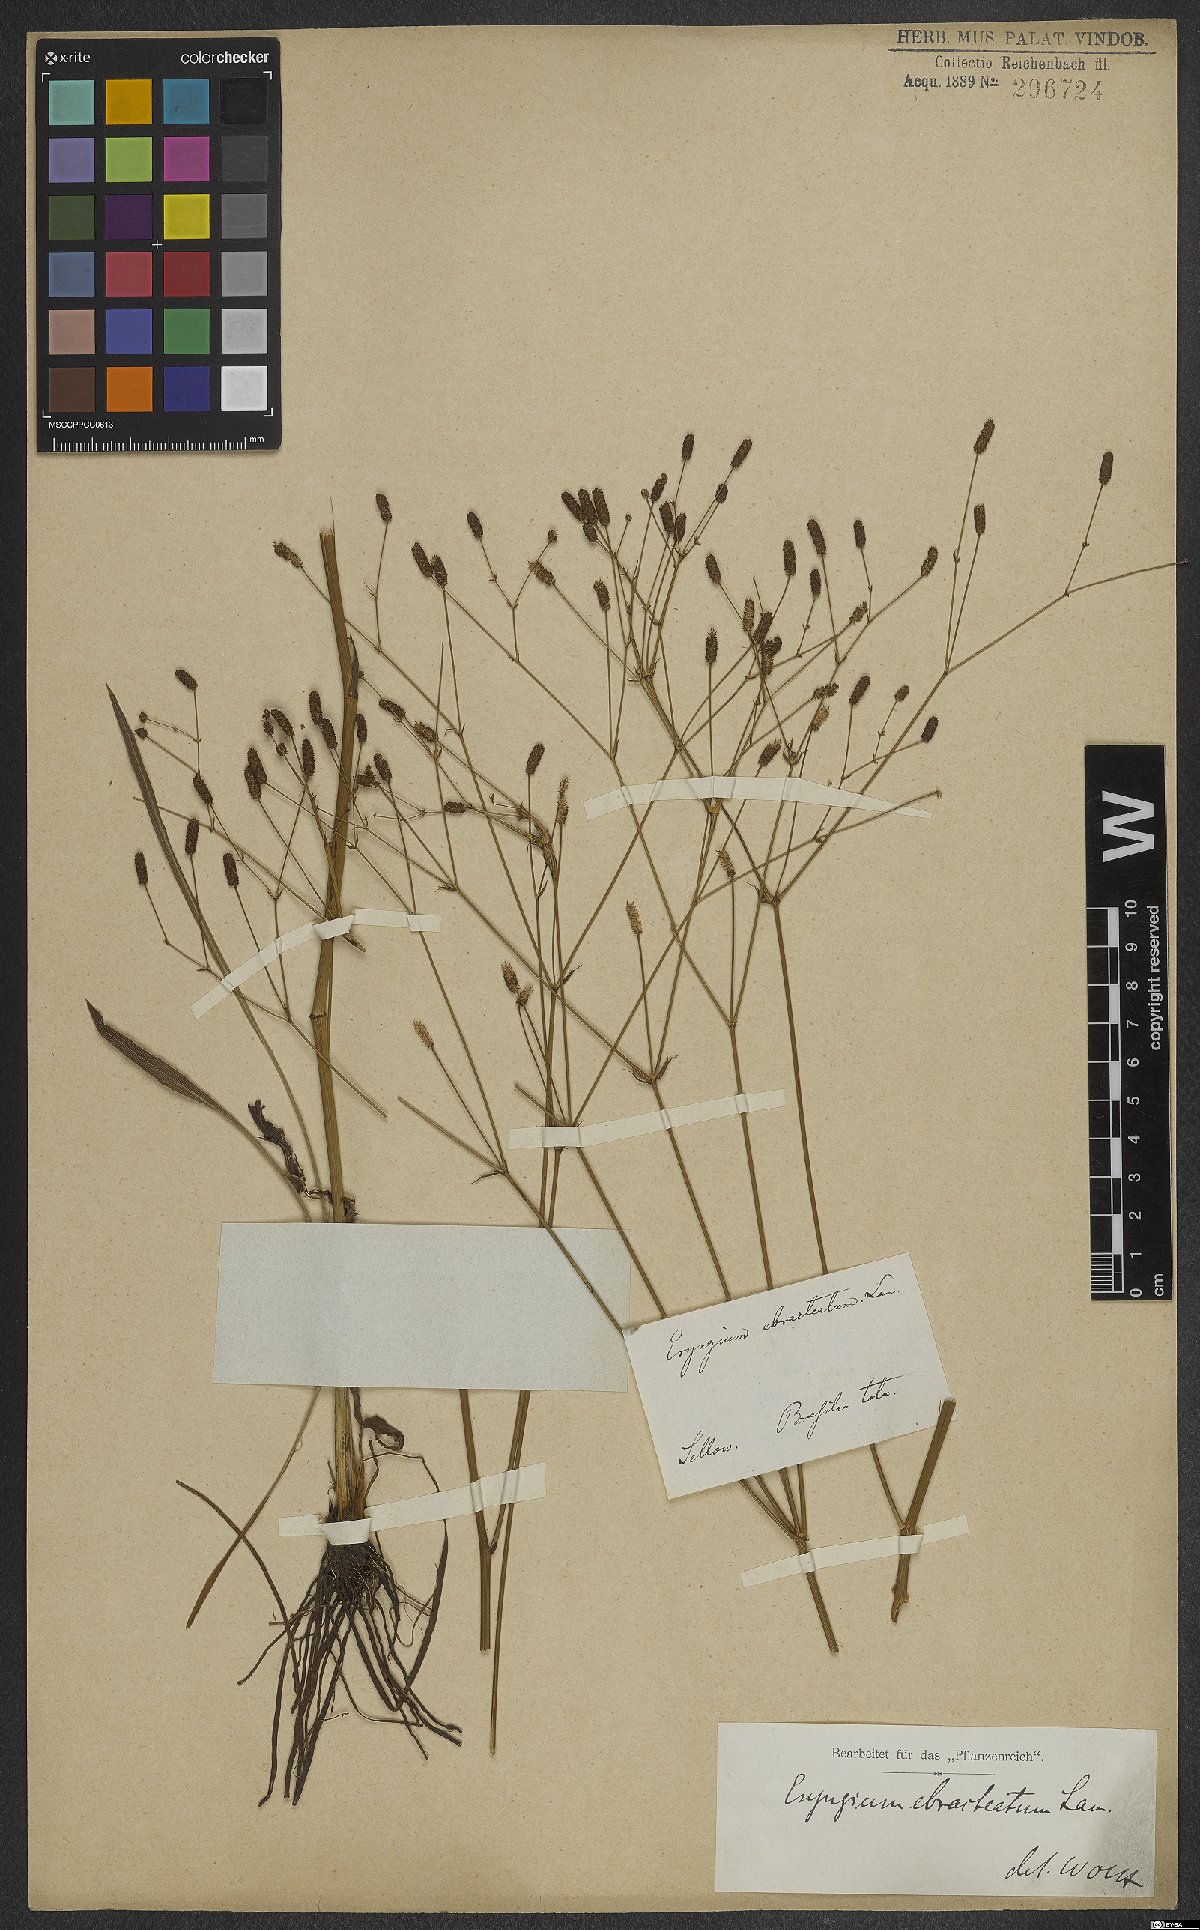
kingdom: Plantae
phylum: Tracheophyta
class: Magnoliopsida
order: Apiales
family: Apiaceae
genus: Eryngium
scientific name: Eryngium ebracteatum
